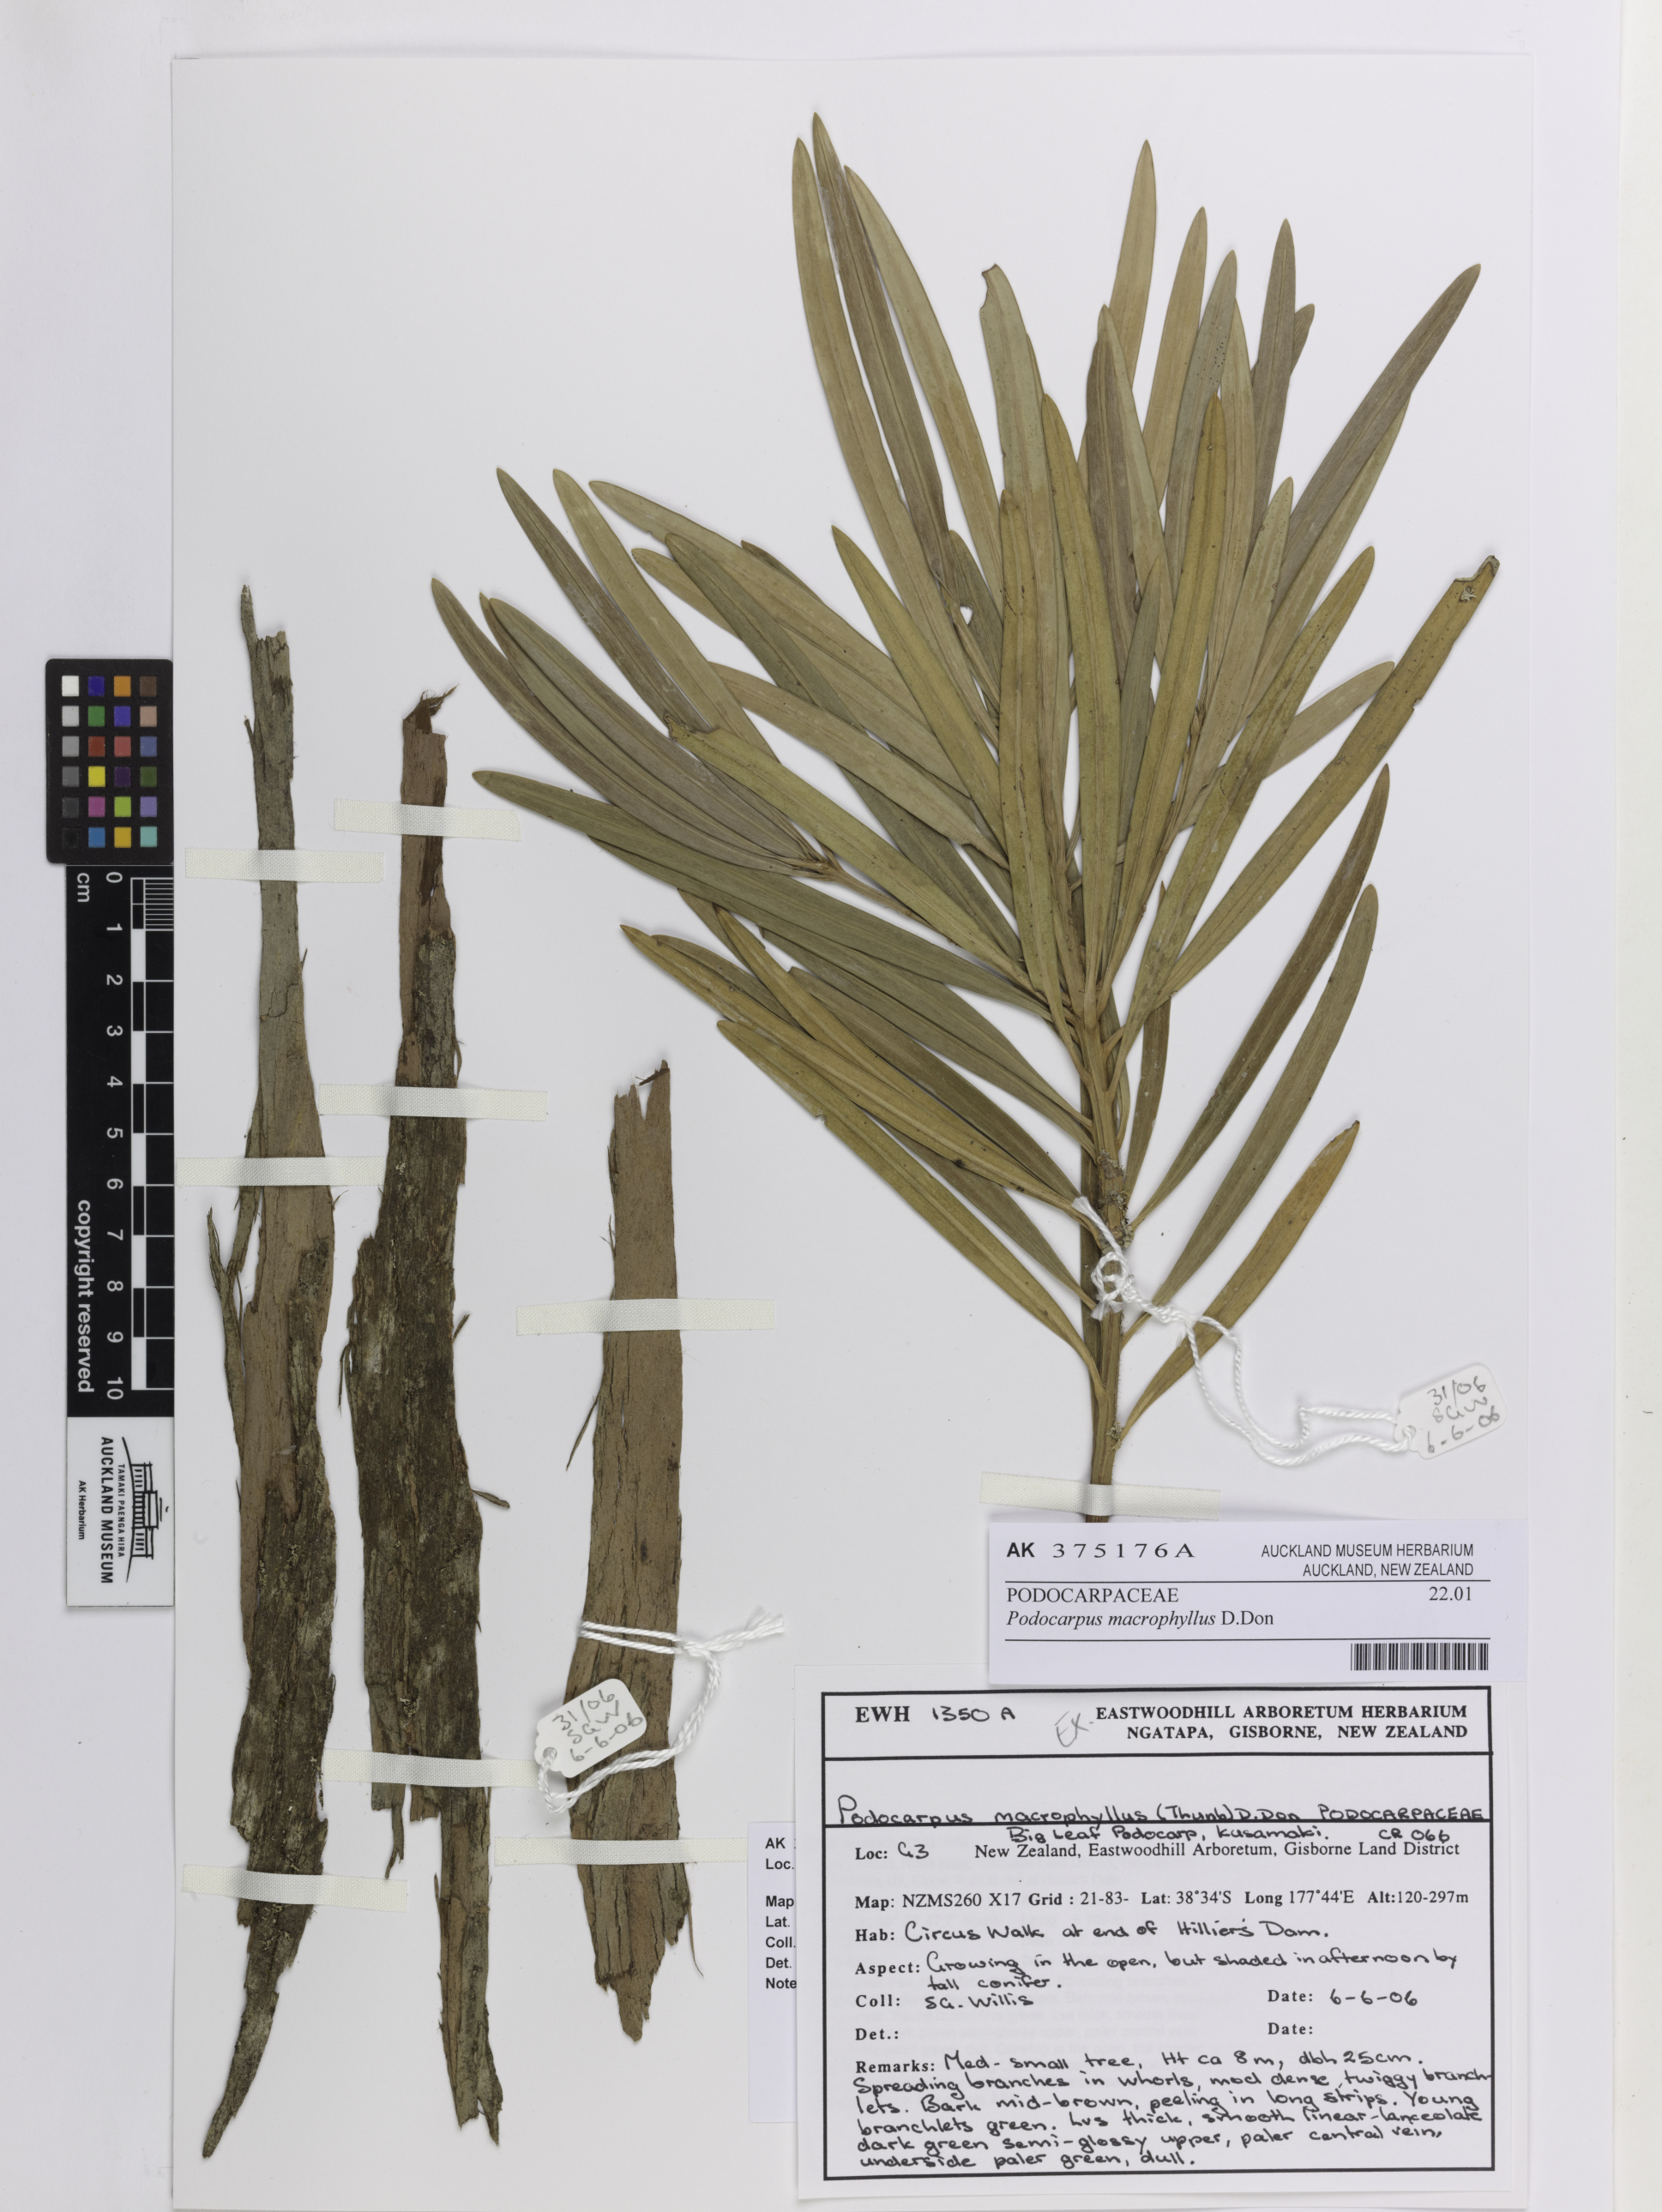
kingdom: Plantae
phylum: Tracheophyta
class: Pinopsida
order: Pinales
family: Podocarpaceae
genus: Podocarpus
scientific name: Podocarpus macrophyllus
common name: Japanese yew
